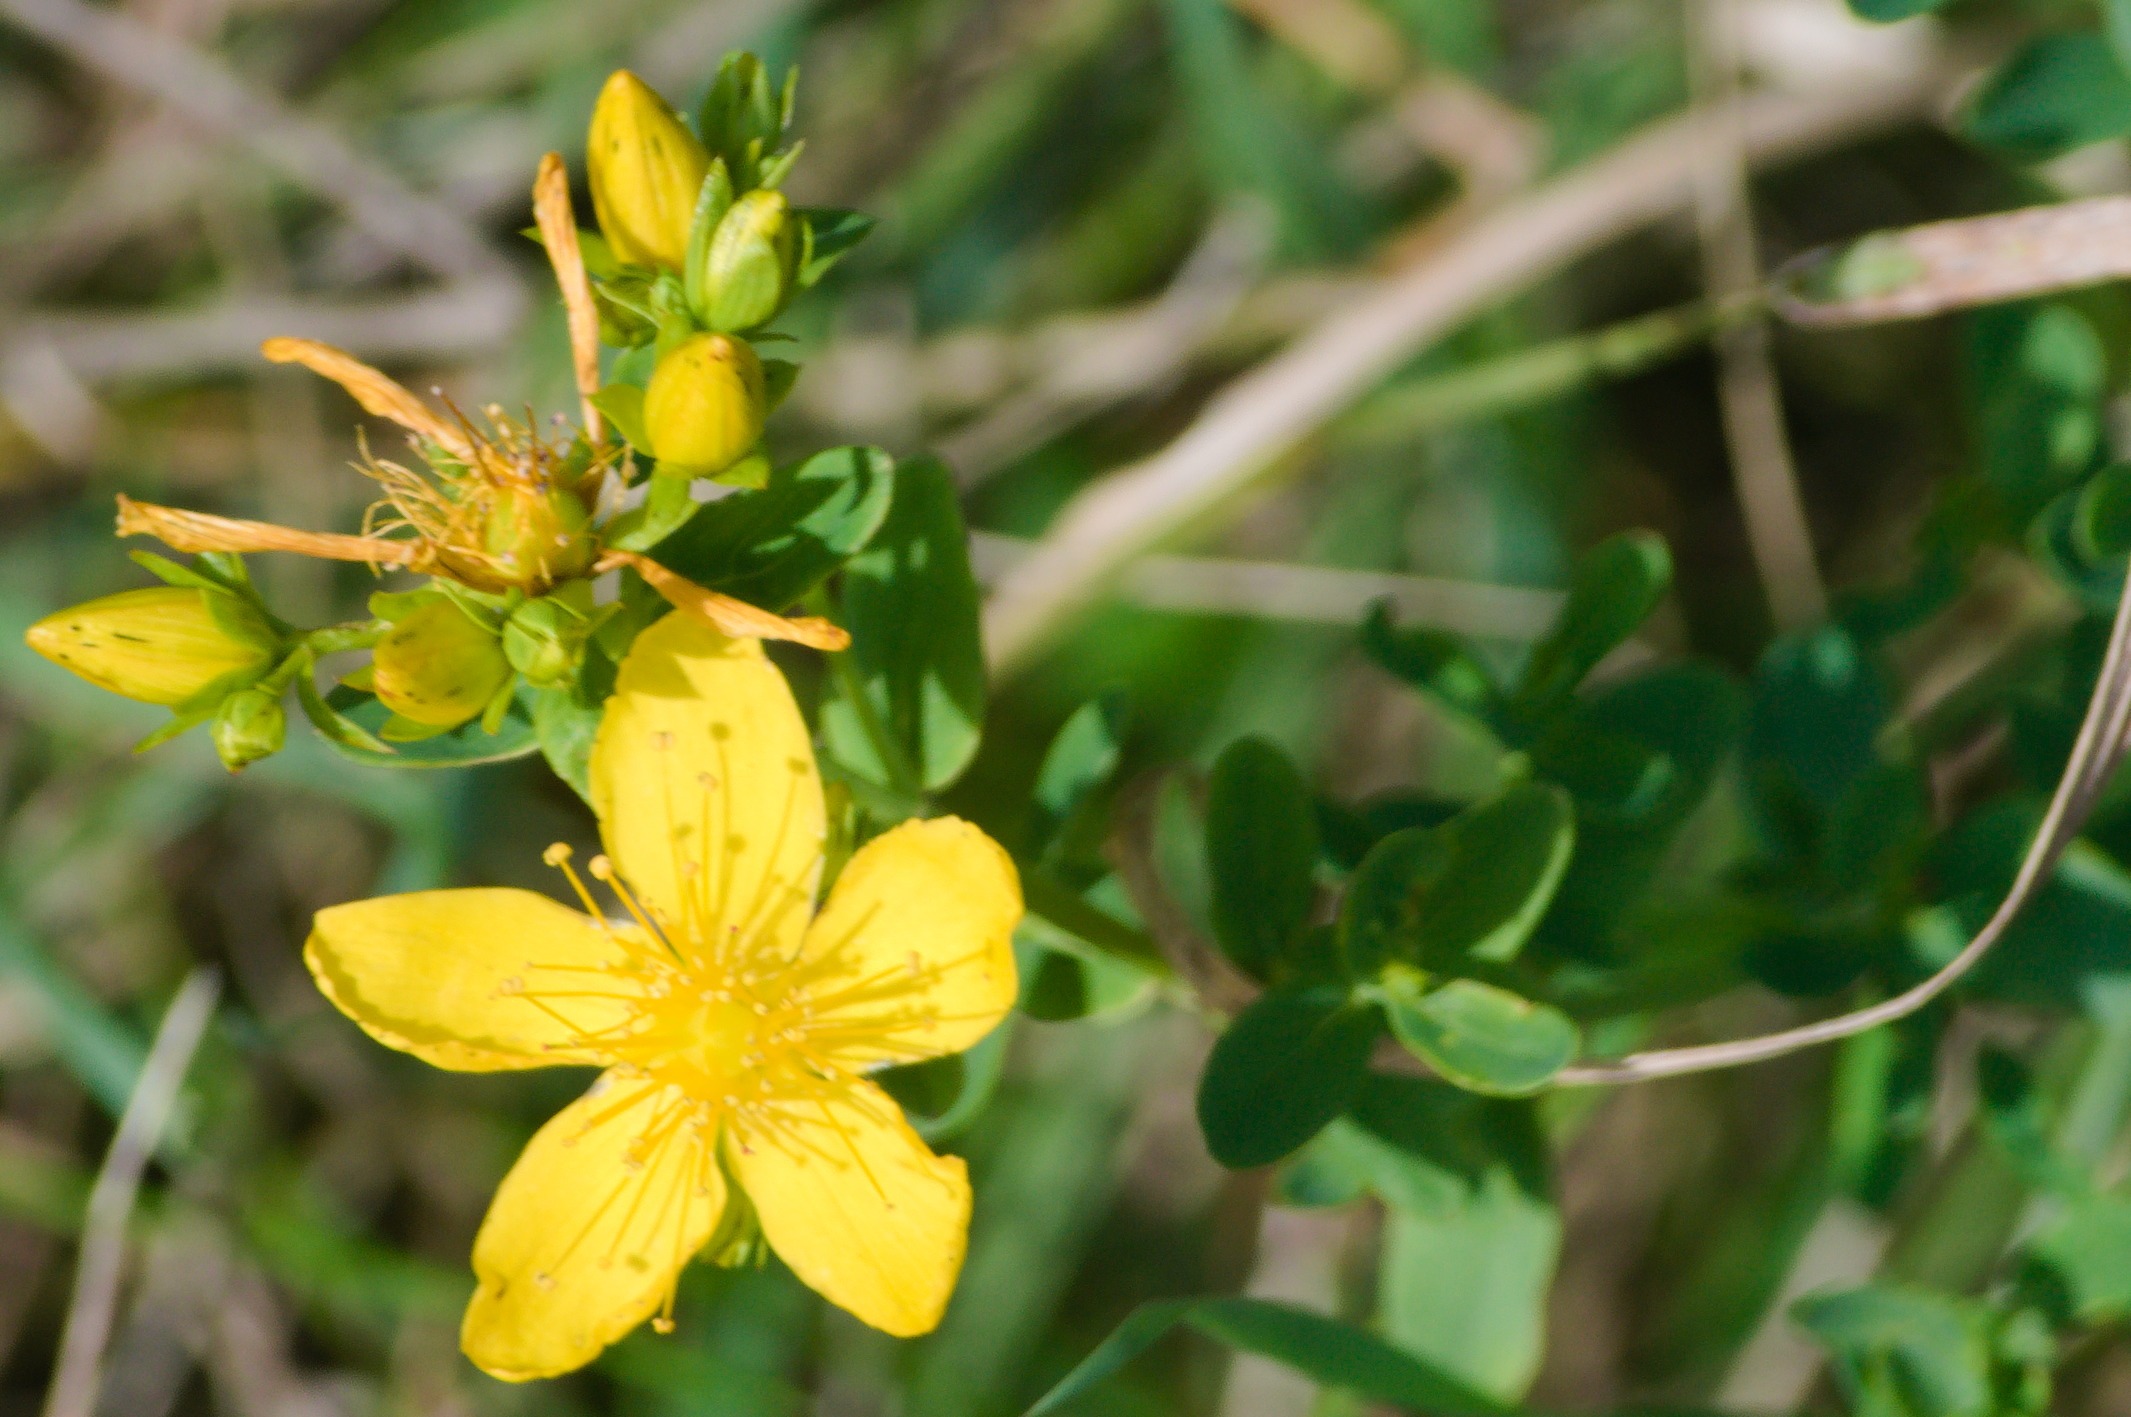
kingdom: Plantae
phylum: Tracheophyta
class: Magnoliopsida
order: Malpighiales
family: Hypericaceae
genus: Hypericum
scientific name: Hypericum perforatum
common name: Prikbladet perikon
